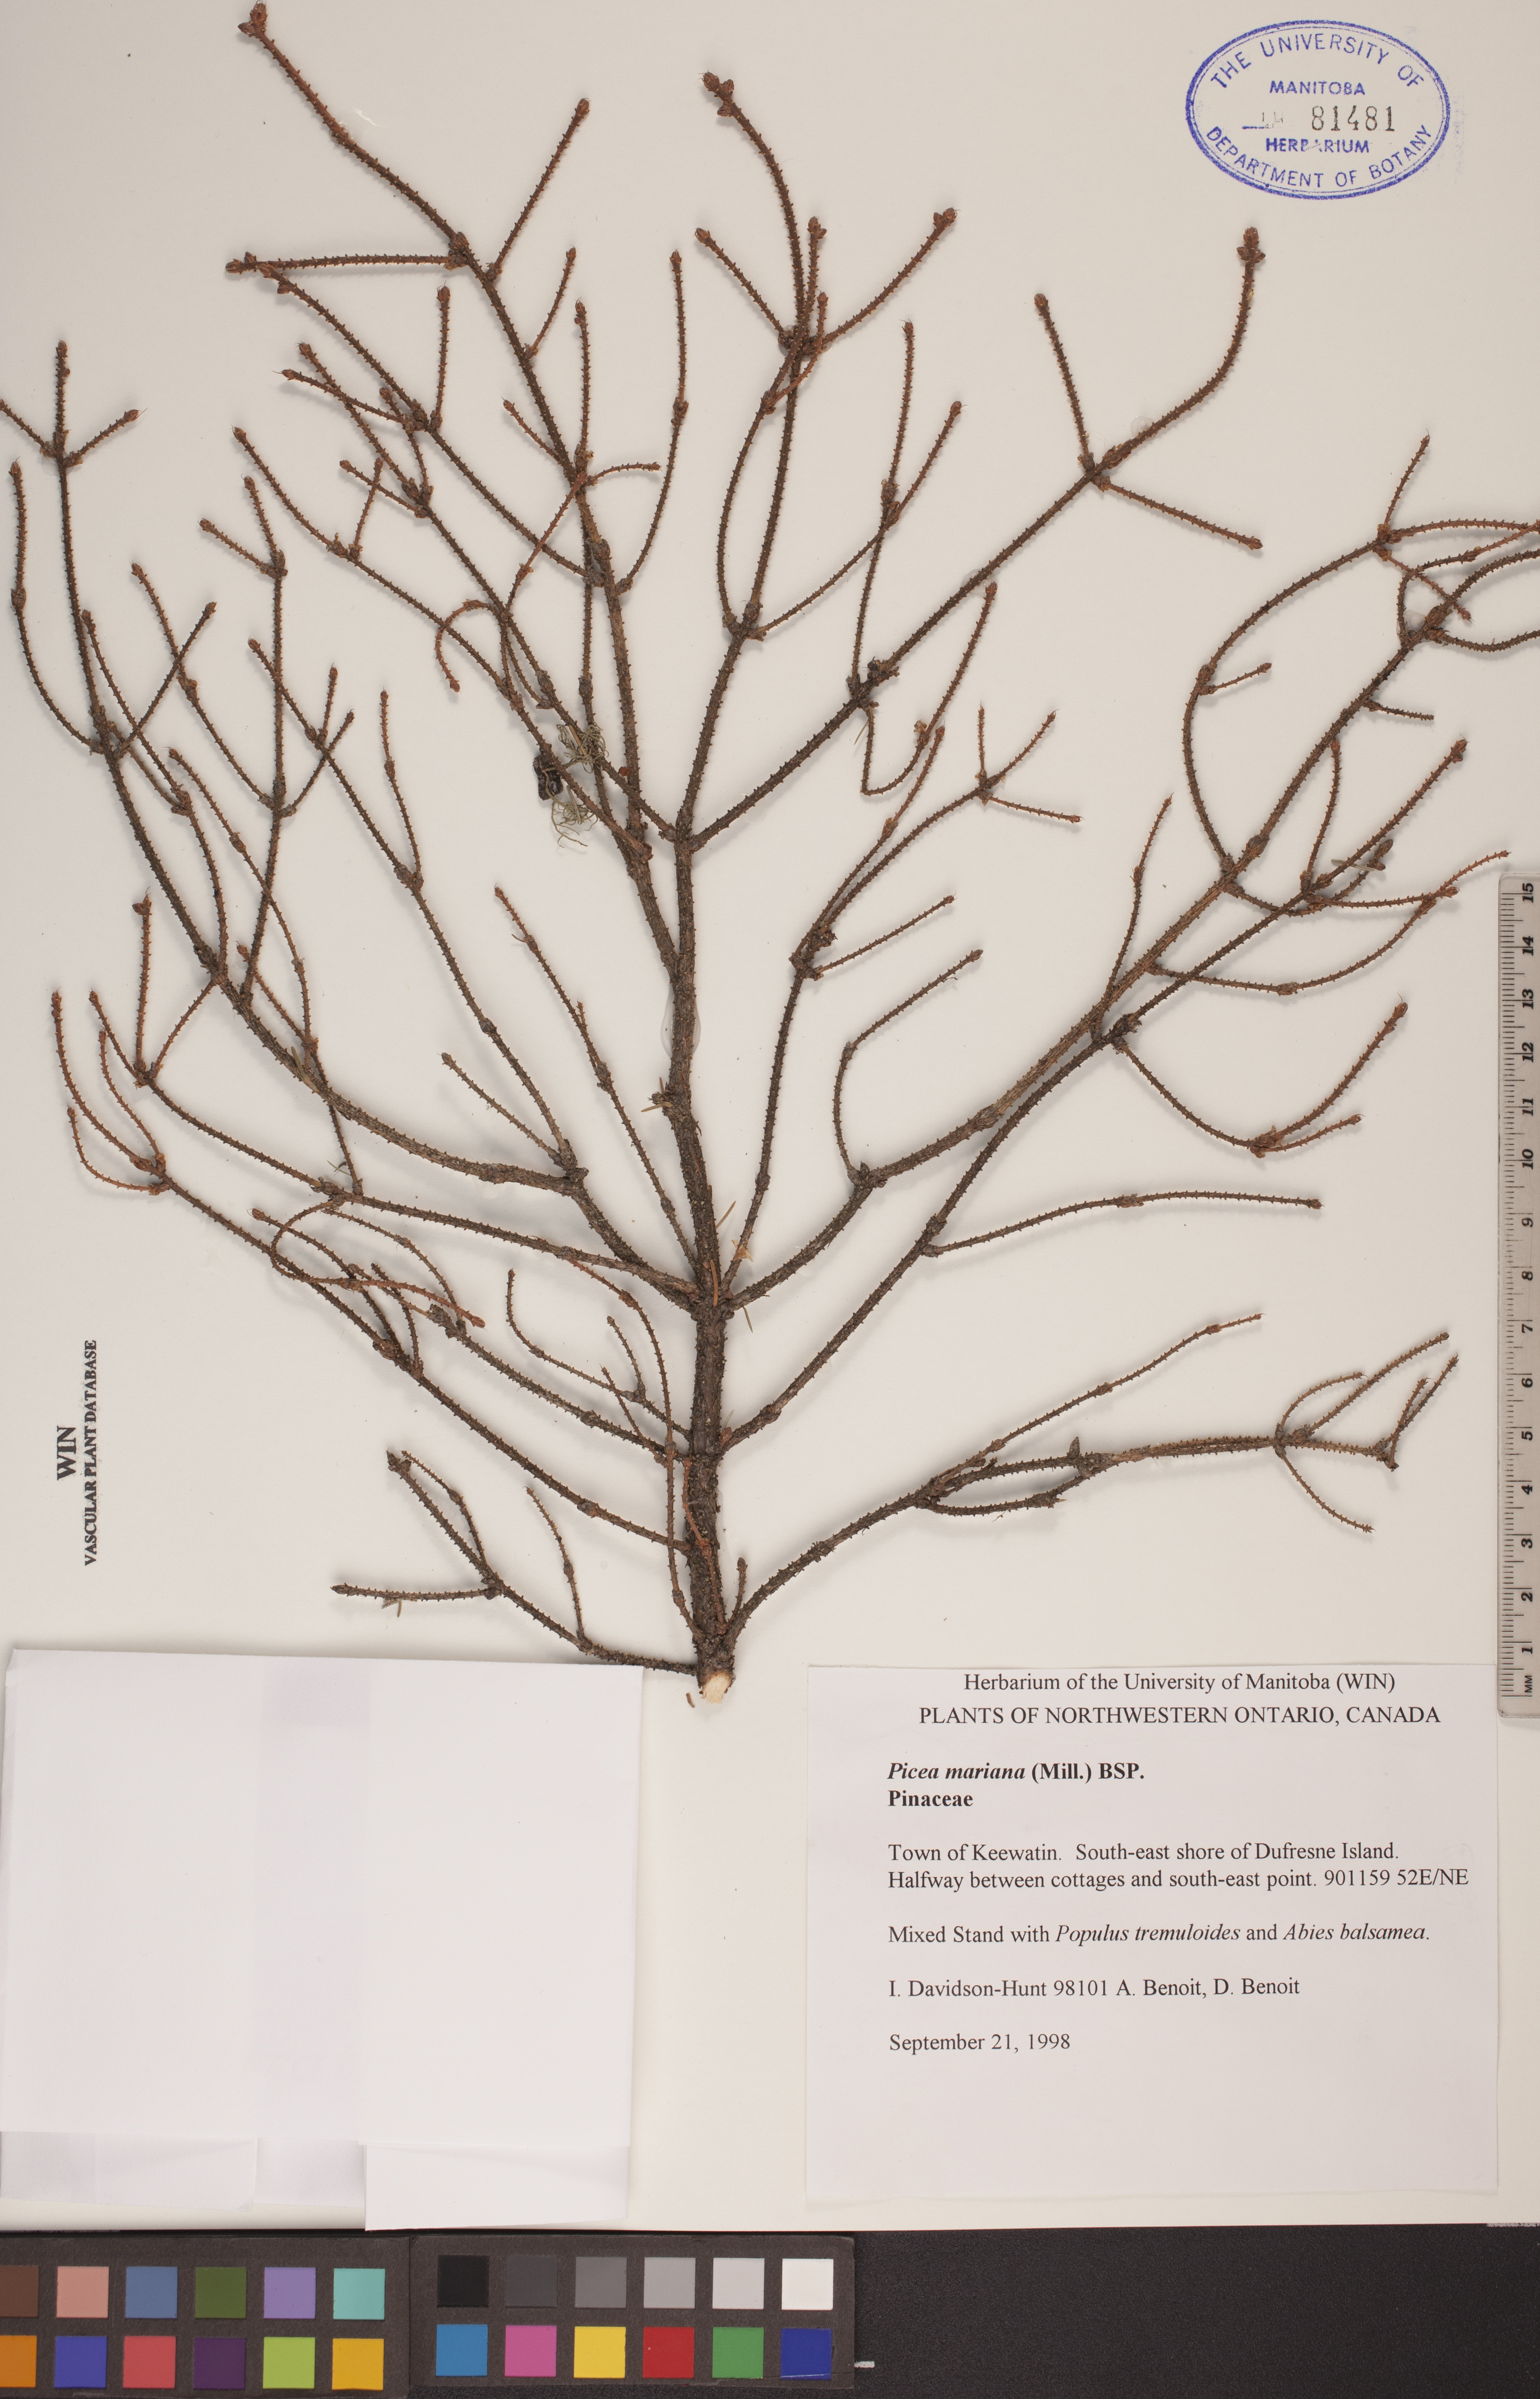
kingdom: Plantae
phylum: Tracheophyta
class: Pinopsida
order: Pinales
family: Pinaceae
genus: Picea
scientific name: Picea mariana
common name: Black spruce
